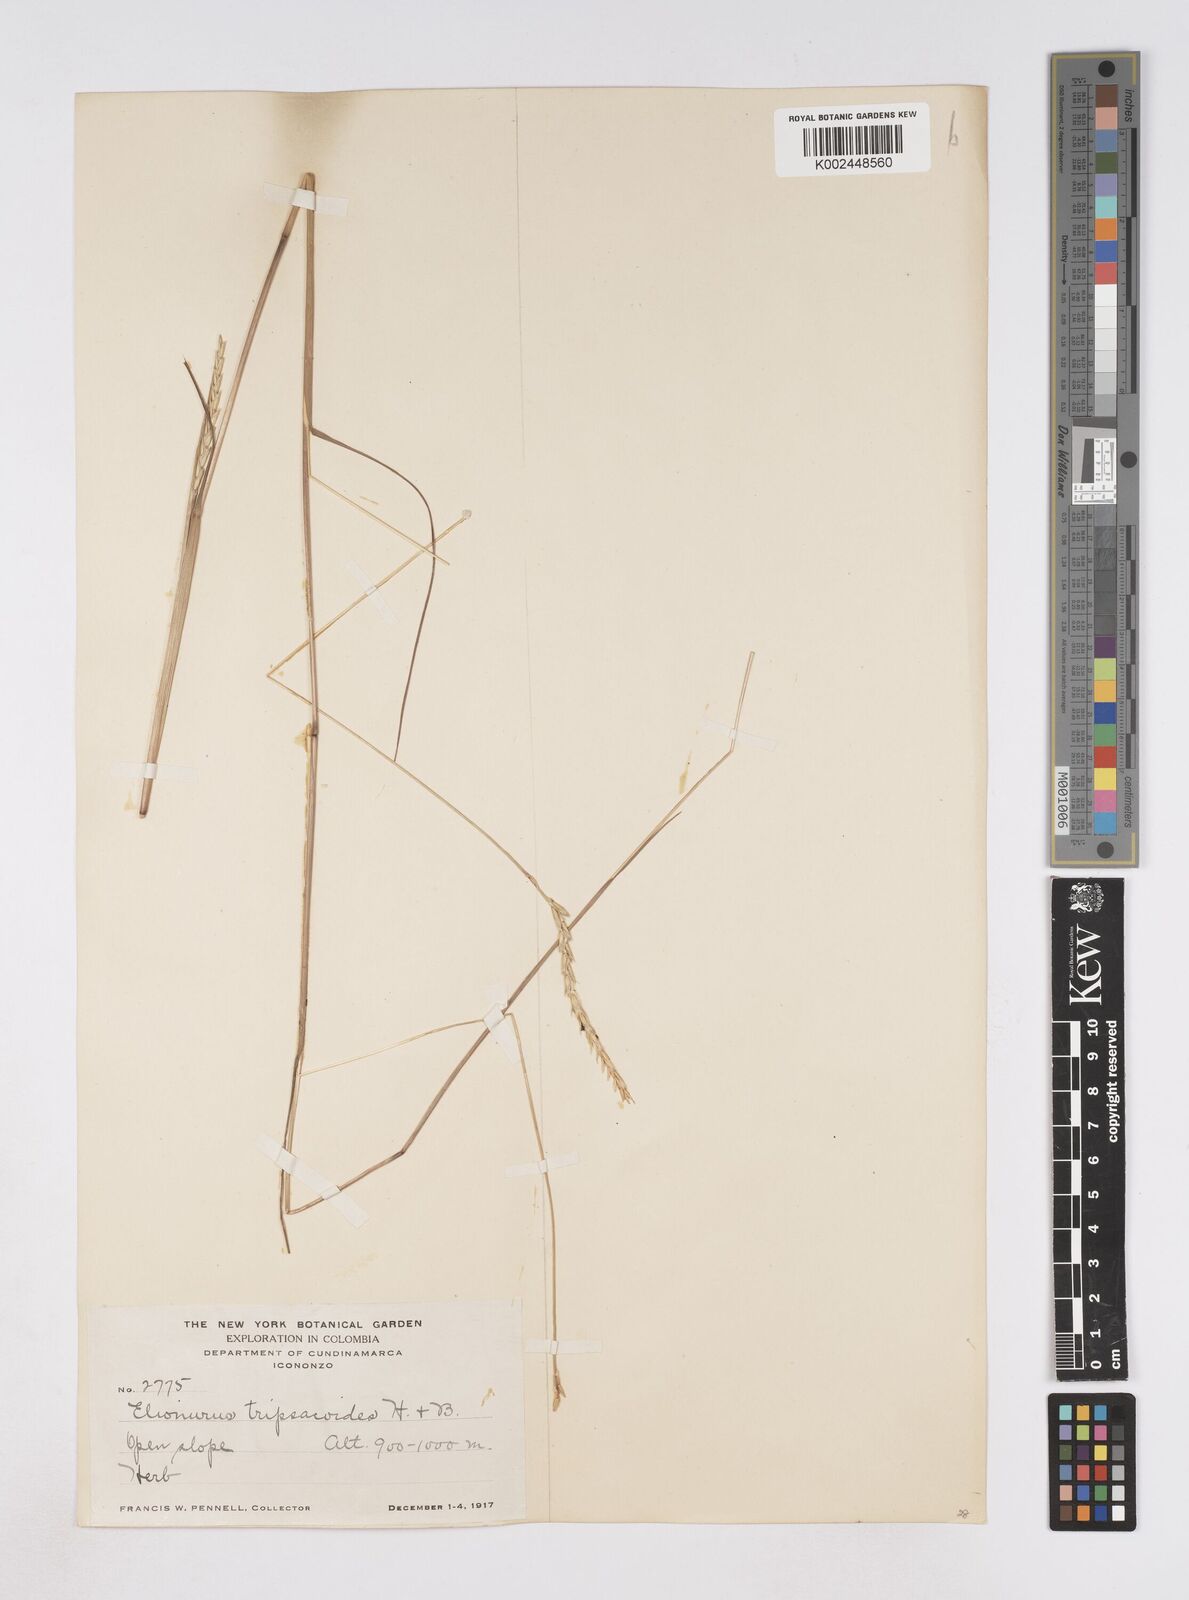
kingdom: Plantae
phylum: Tracheophyta
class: Liliopsida
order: Poales
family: Poaceae
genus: Elionurus
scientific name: Elionurus tripsacoides
